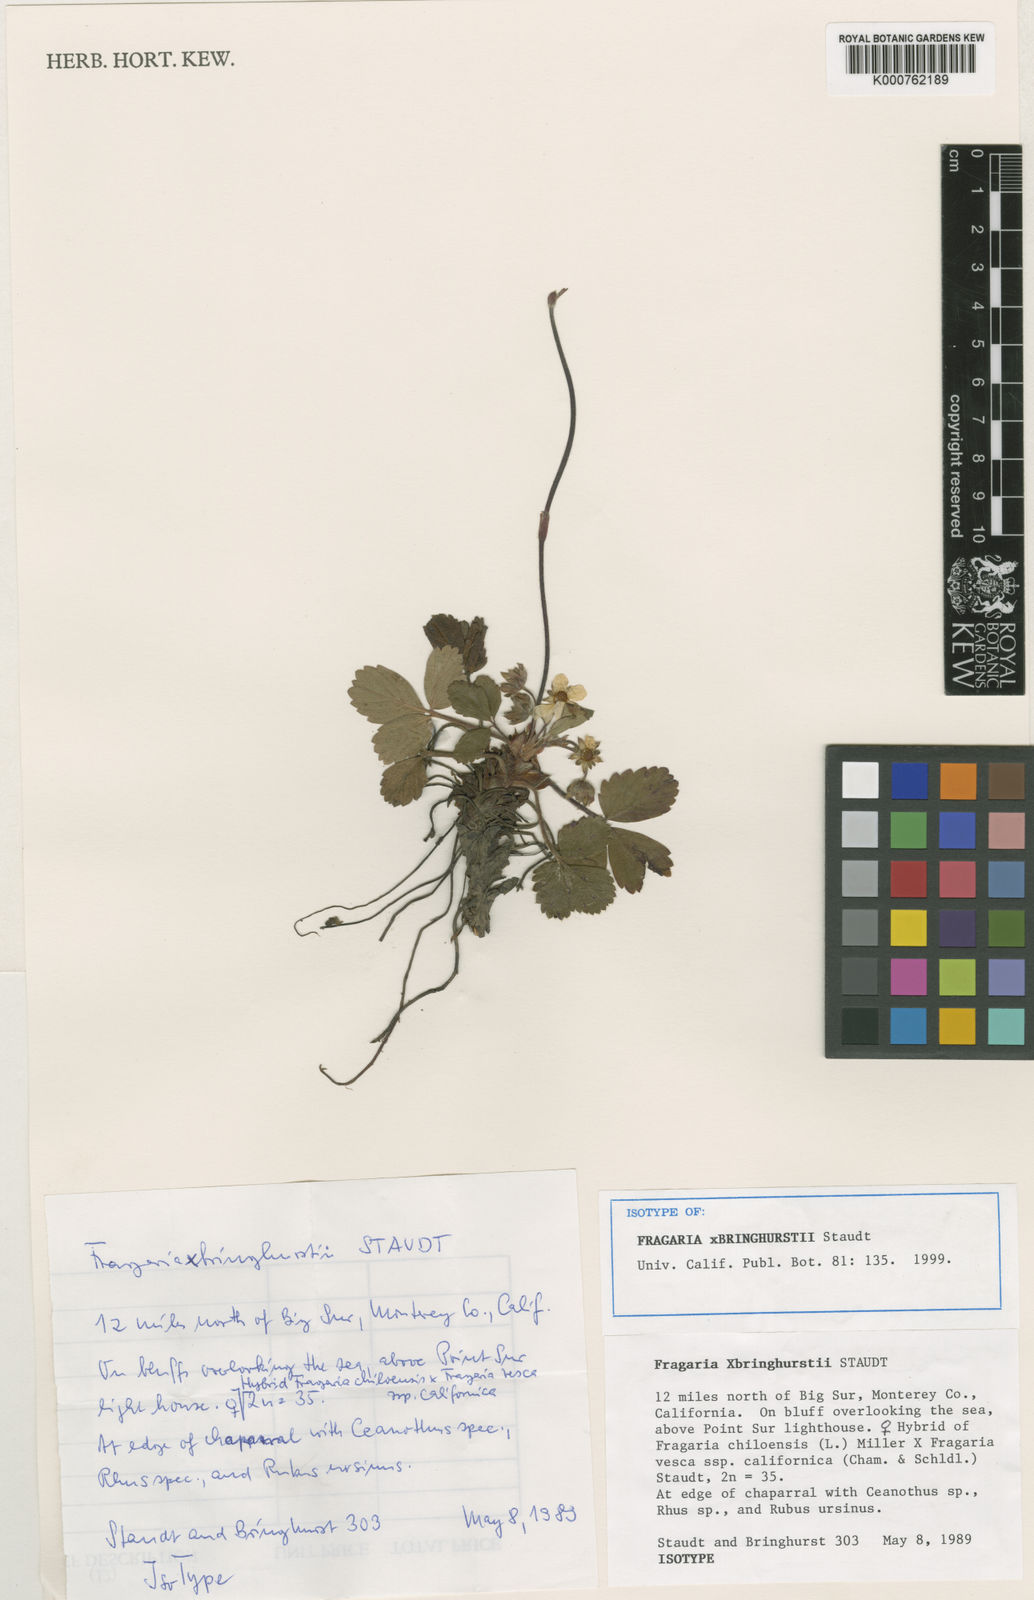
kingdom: Plantae
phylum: Tracheophyta
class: Magnoliopsida
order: Rosales
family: Rosaceae
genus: Fragaria
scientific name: Fragaria bringhurstii
